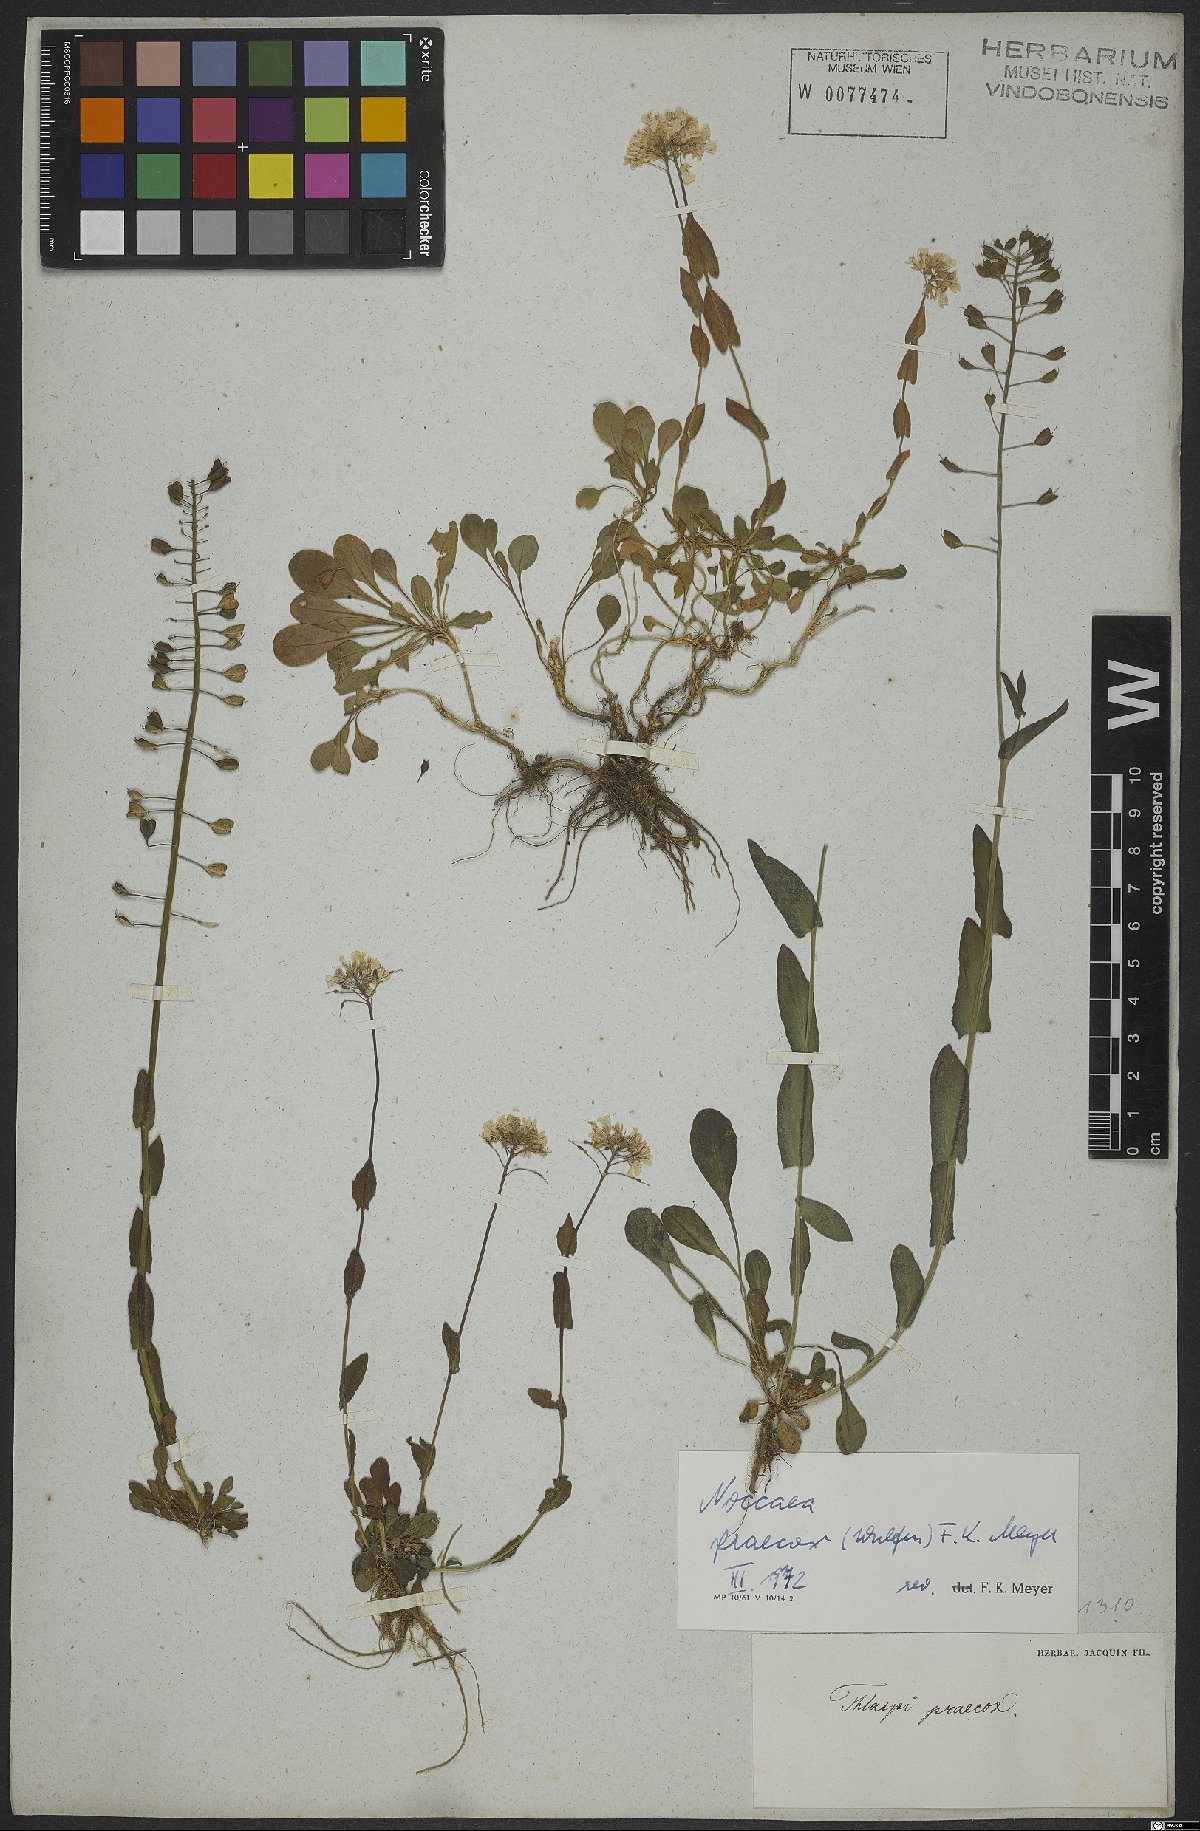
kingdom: Plantae
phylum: Tracheophyta
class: Magnoliopsida
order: Brassicales
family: Brassicaceae
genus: Noccaea
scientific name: Noccaea praecox
